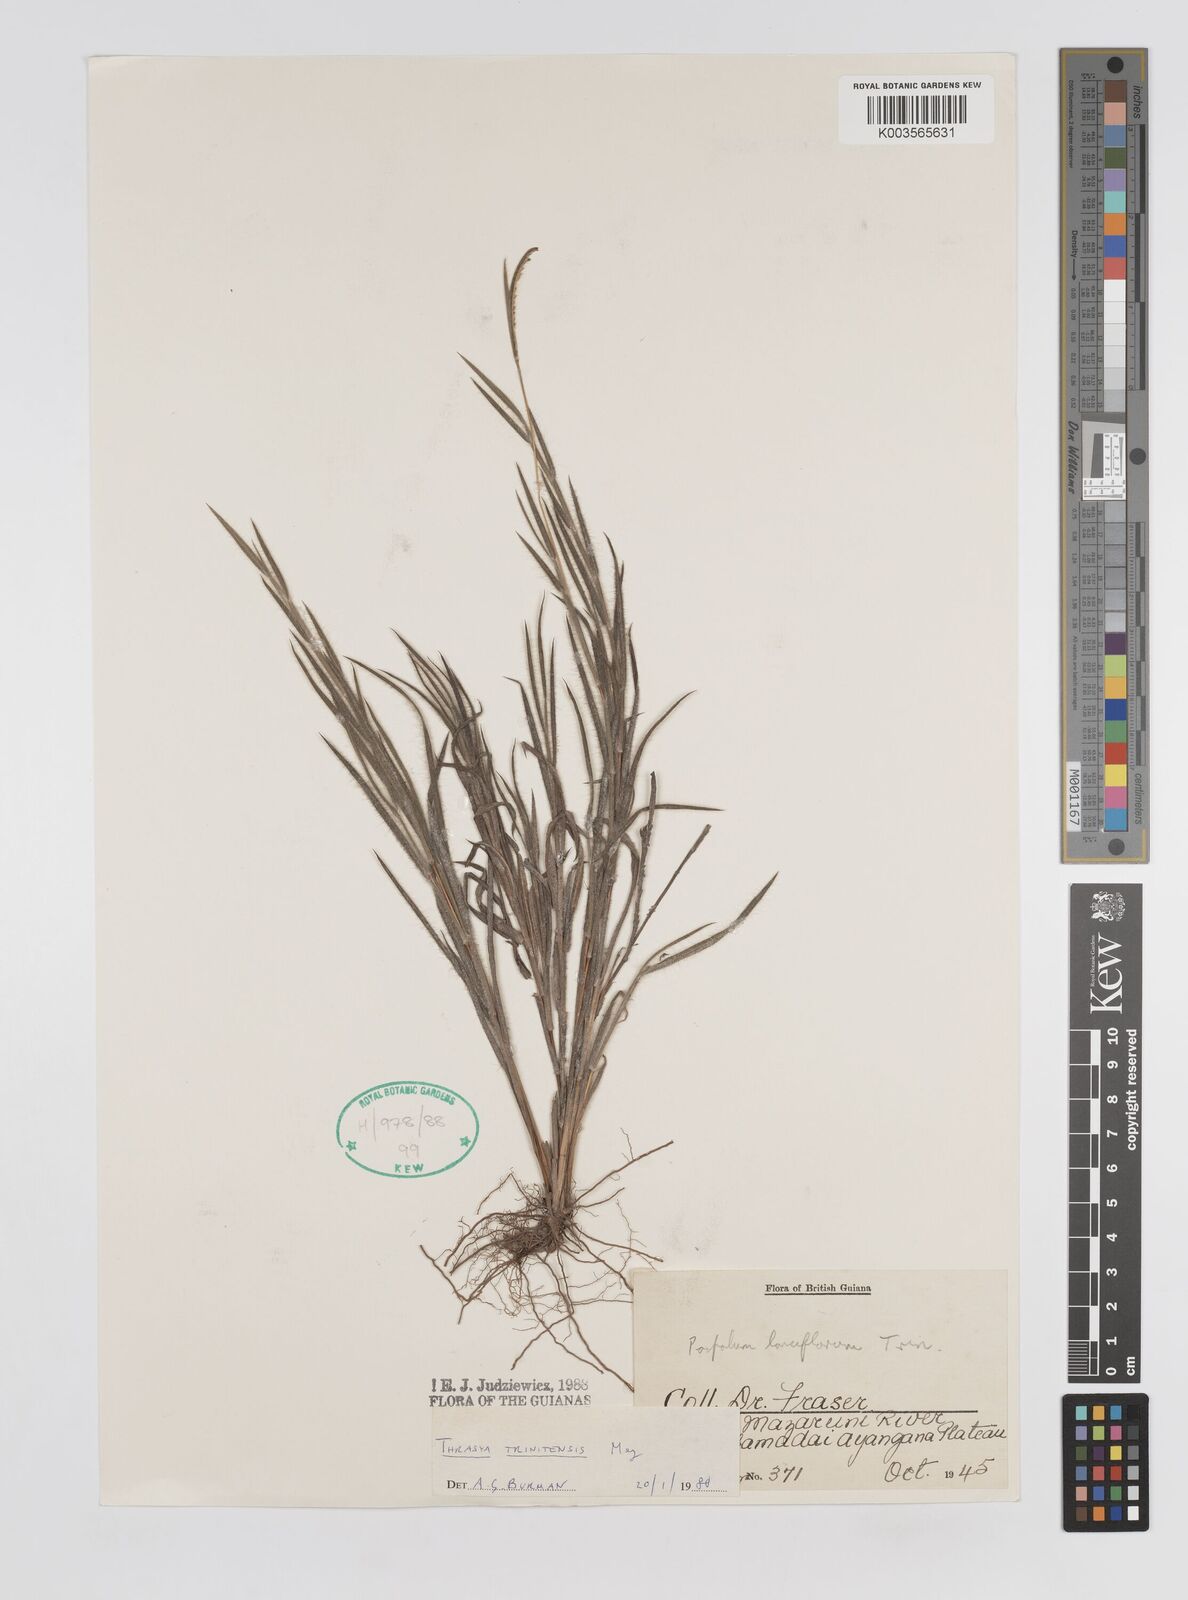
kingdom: Plantae
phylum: Tracheophyta
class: Liliopsida
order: Poales
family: Poaceae
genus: Paspalum
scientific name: Paspalum trinitense
